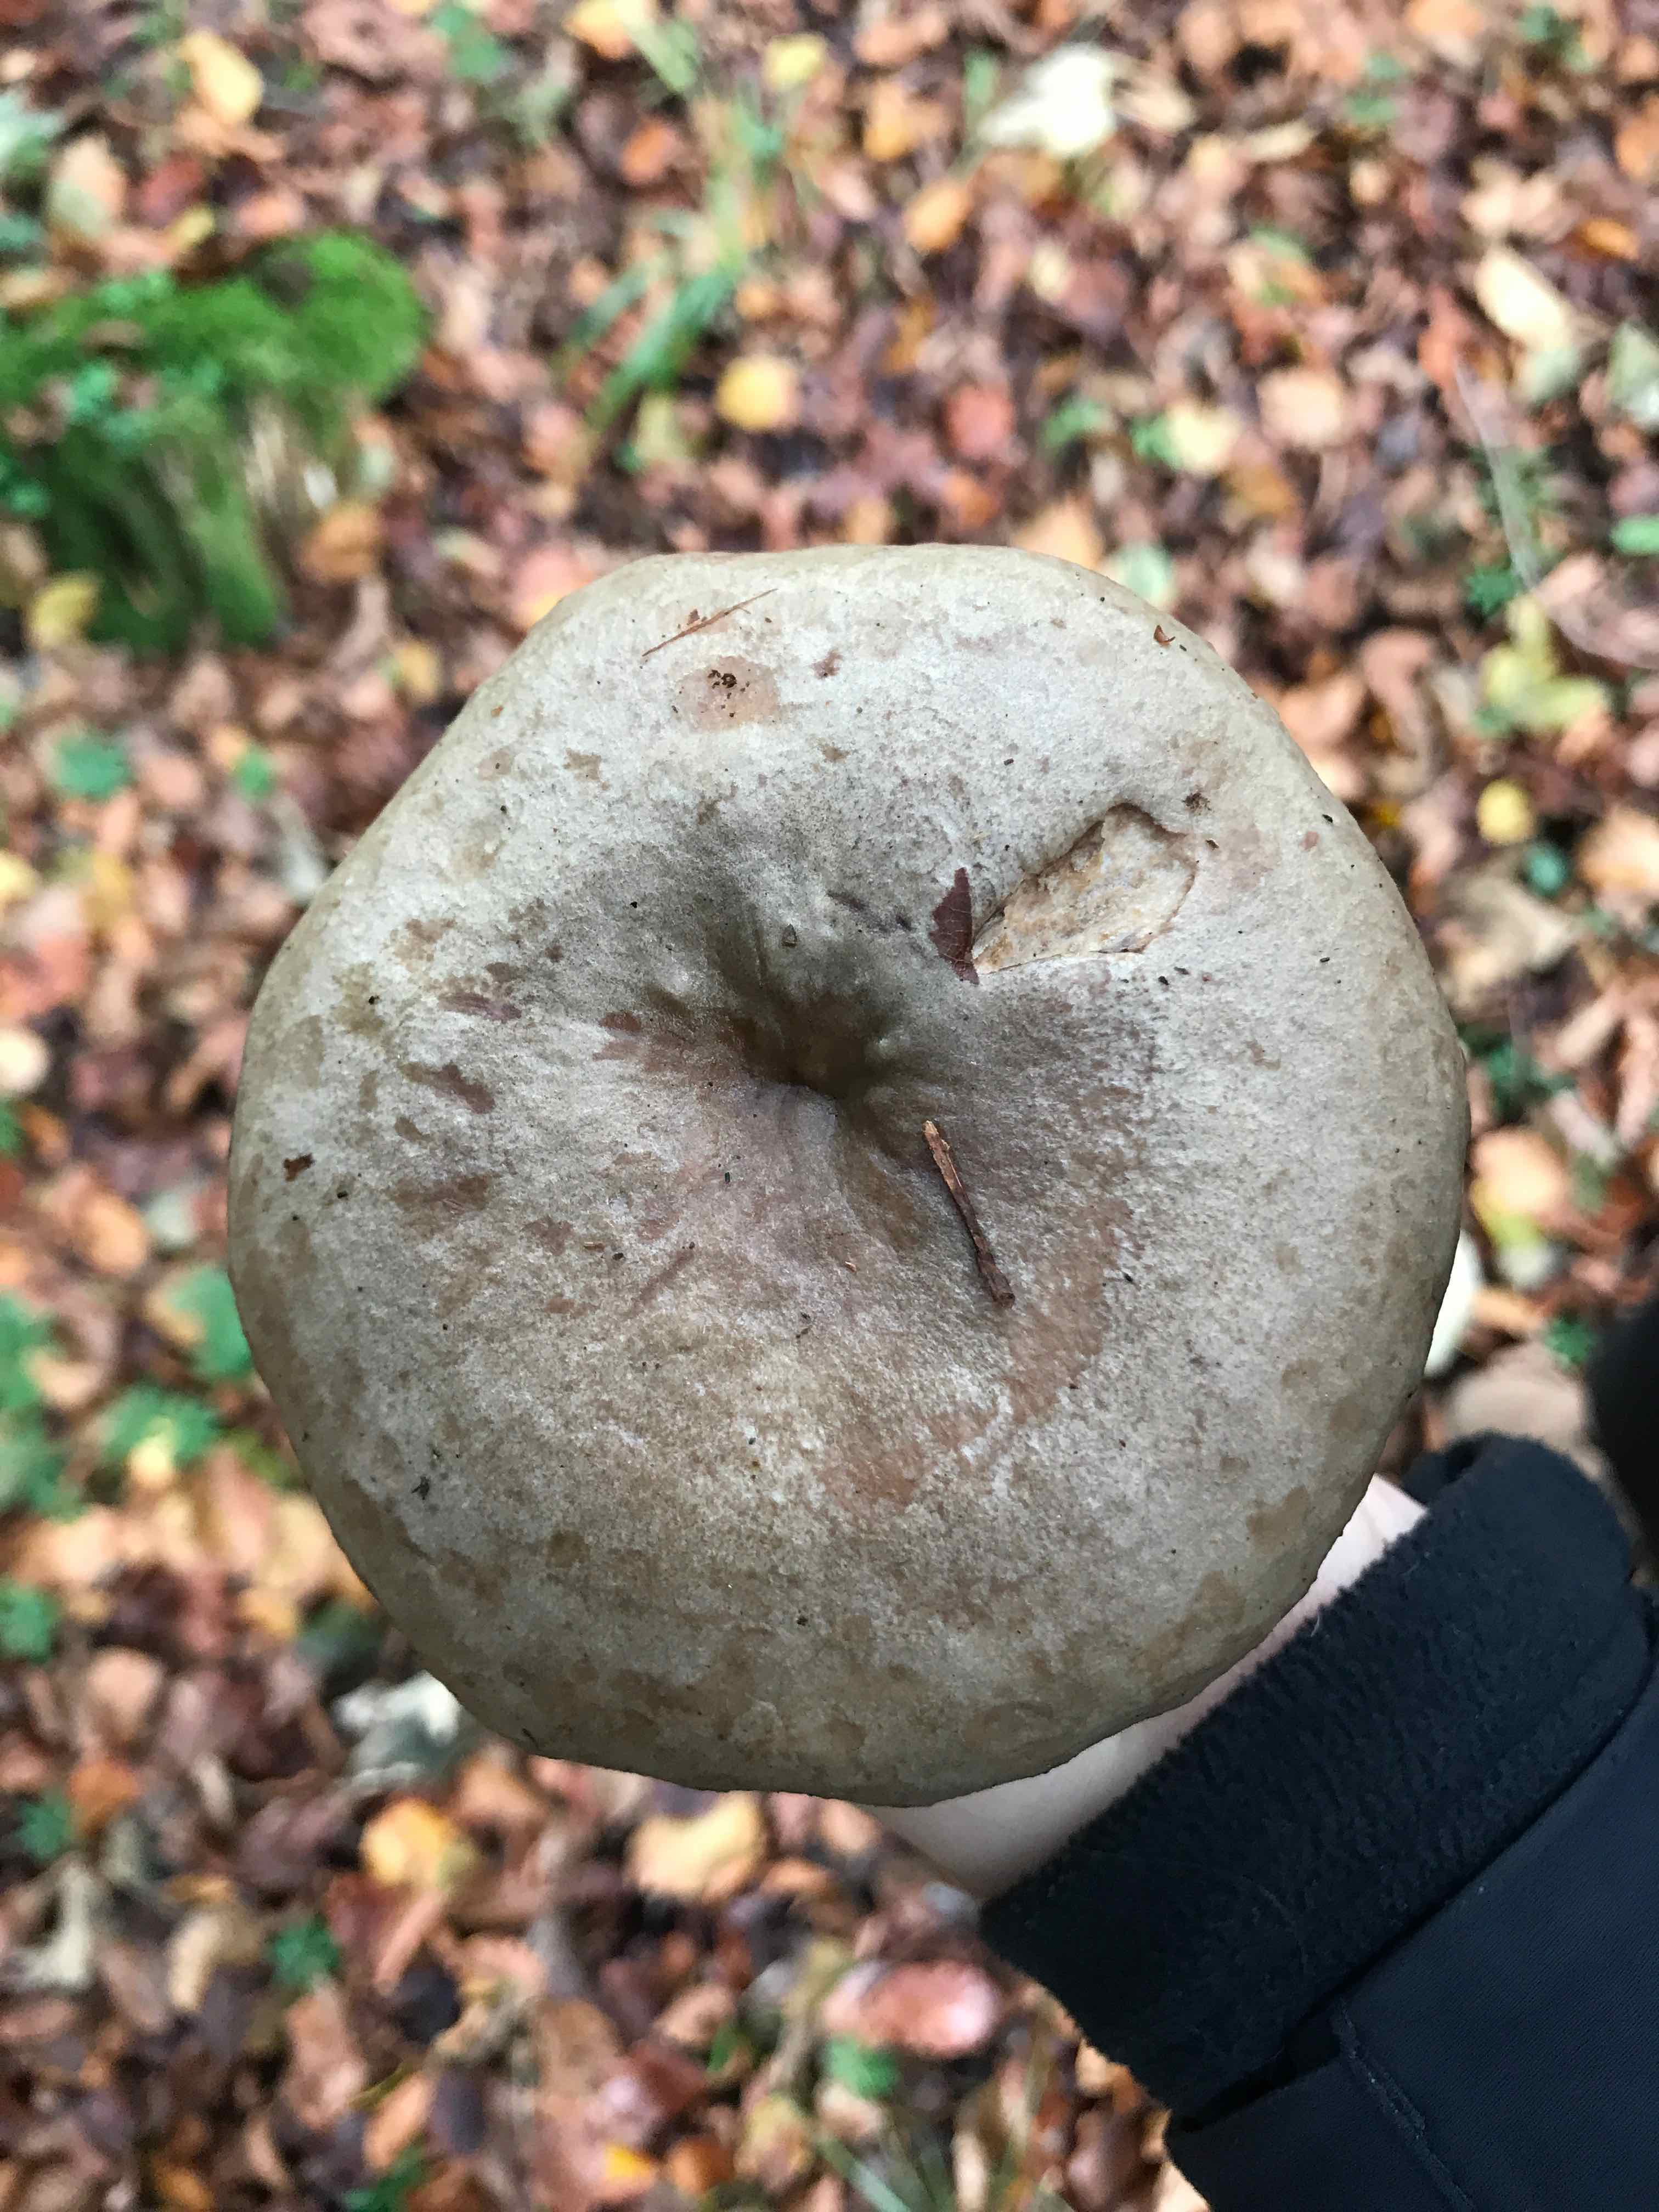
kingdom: Fungi
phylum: Basidiomycota
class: Agaricomycetes
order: Russulales
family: Russulaceae
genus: Lactarius
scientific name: Lactarius fluens
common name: lysrandet mælkehat
